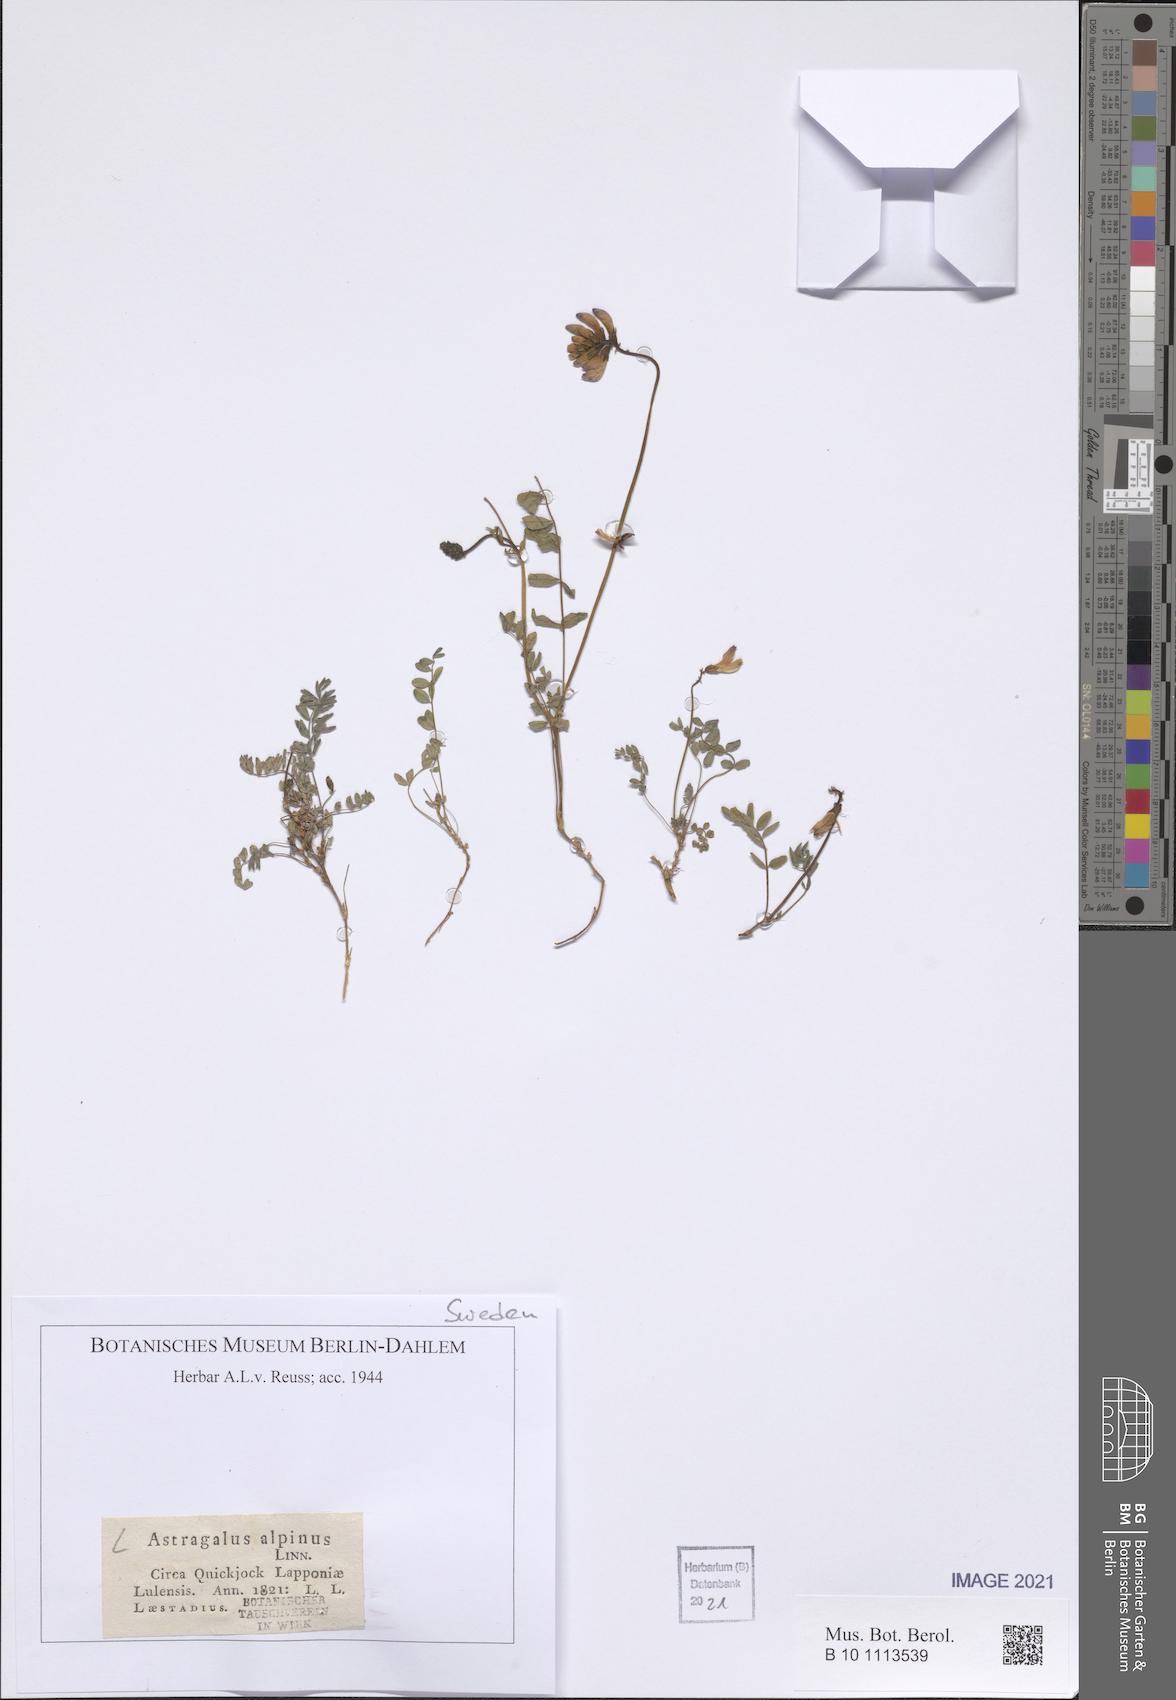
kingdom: Plantae
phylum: Tracheophyta
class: Magnoliopsida
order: Fabales
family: Fabaceae
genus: Astragalus
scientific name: Astragalus alpinus
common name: Alpine milk-vetch
